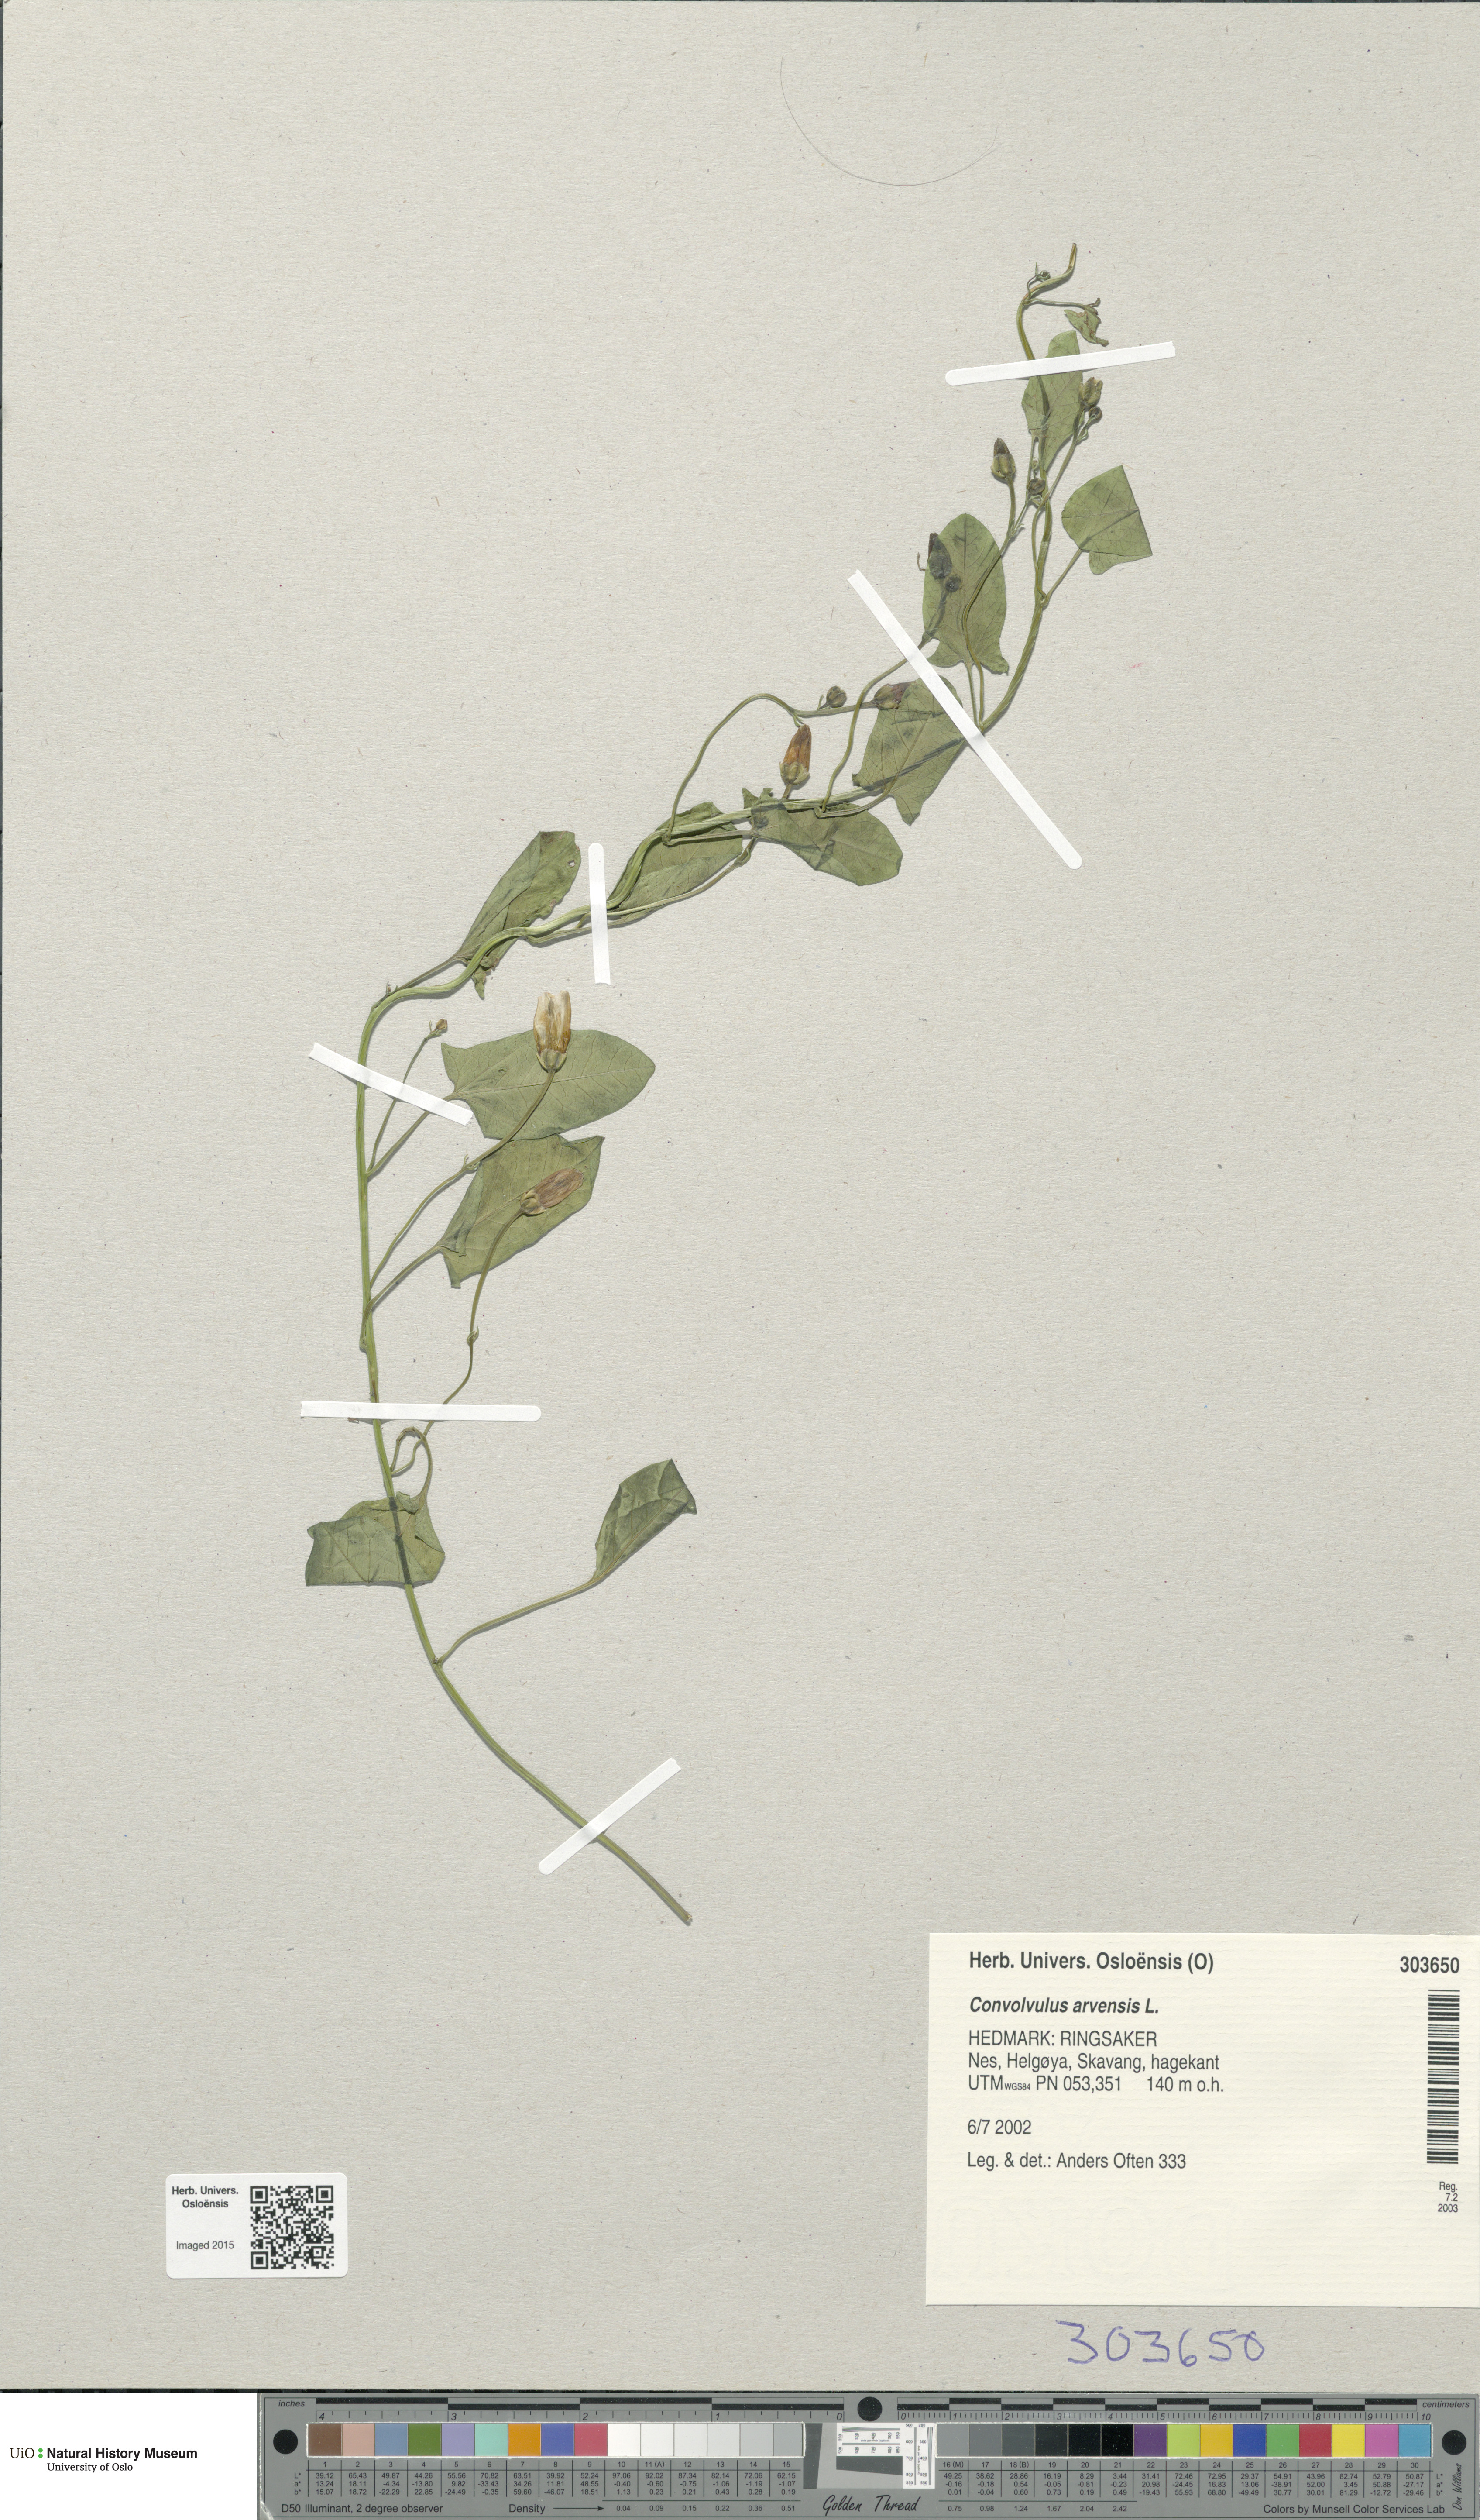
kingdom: Plantae
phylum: Tracheophyta
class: Magnoliopsida
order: Solanales
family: Convolvulaceae
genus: Convolvulus
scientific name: Convolvulus arvensis
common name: Field bindweed
